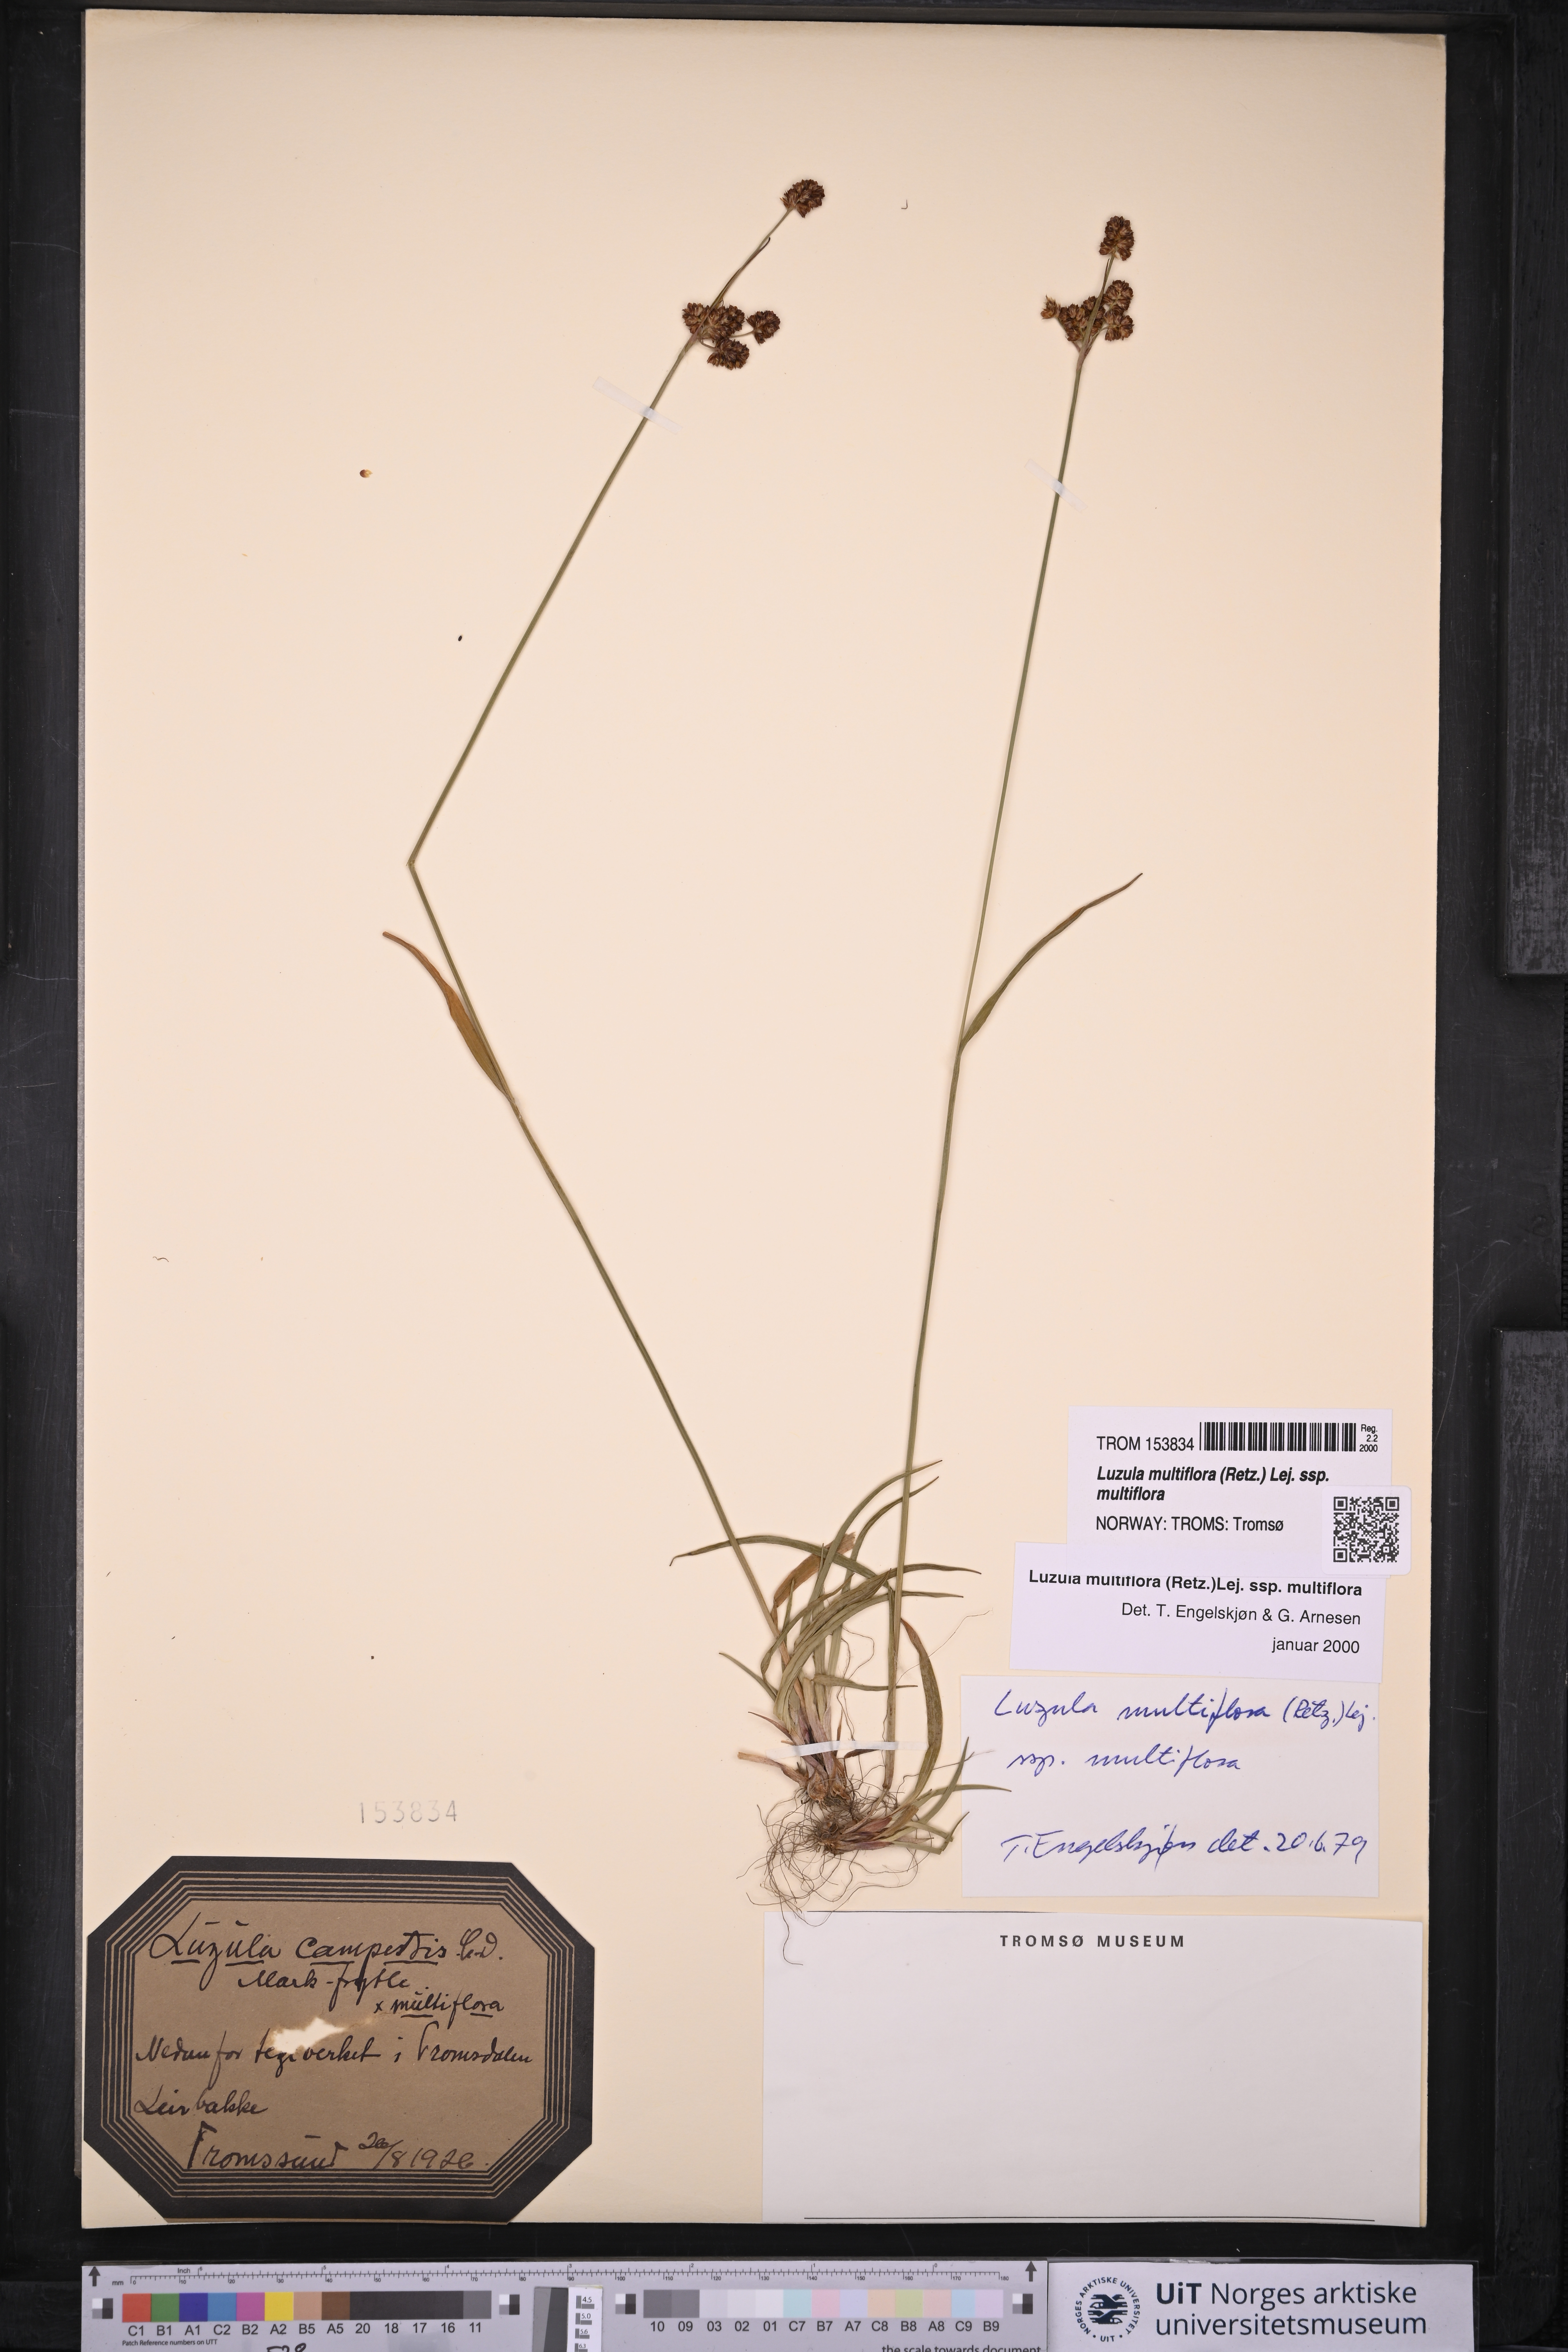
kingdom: Plantae
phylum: Tracheophyta
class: Liliopsida
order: Poales
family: Juncaceae
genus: Luzula
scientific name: Luzula multiflora
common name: Heath wood-rush
